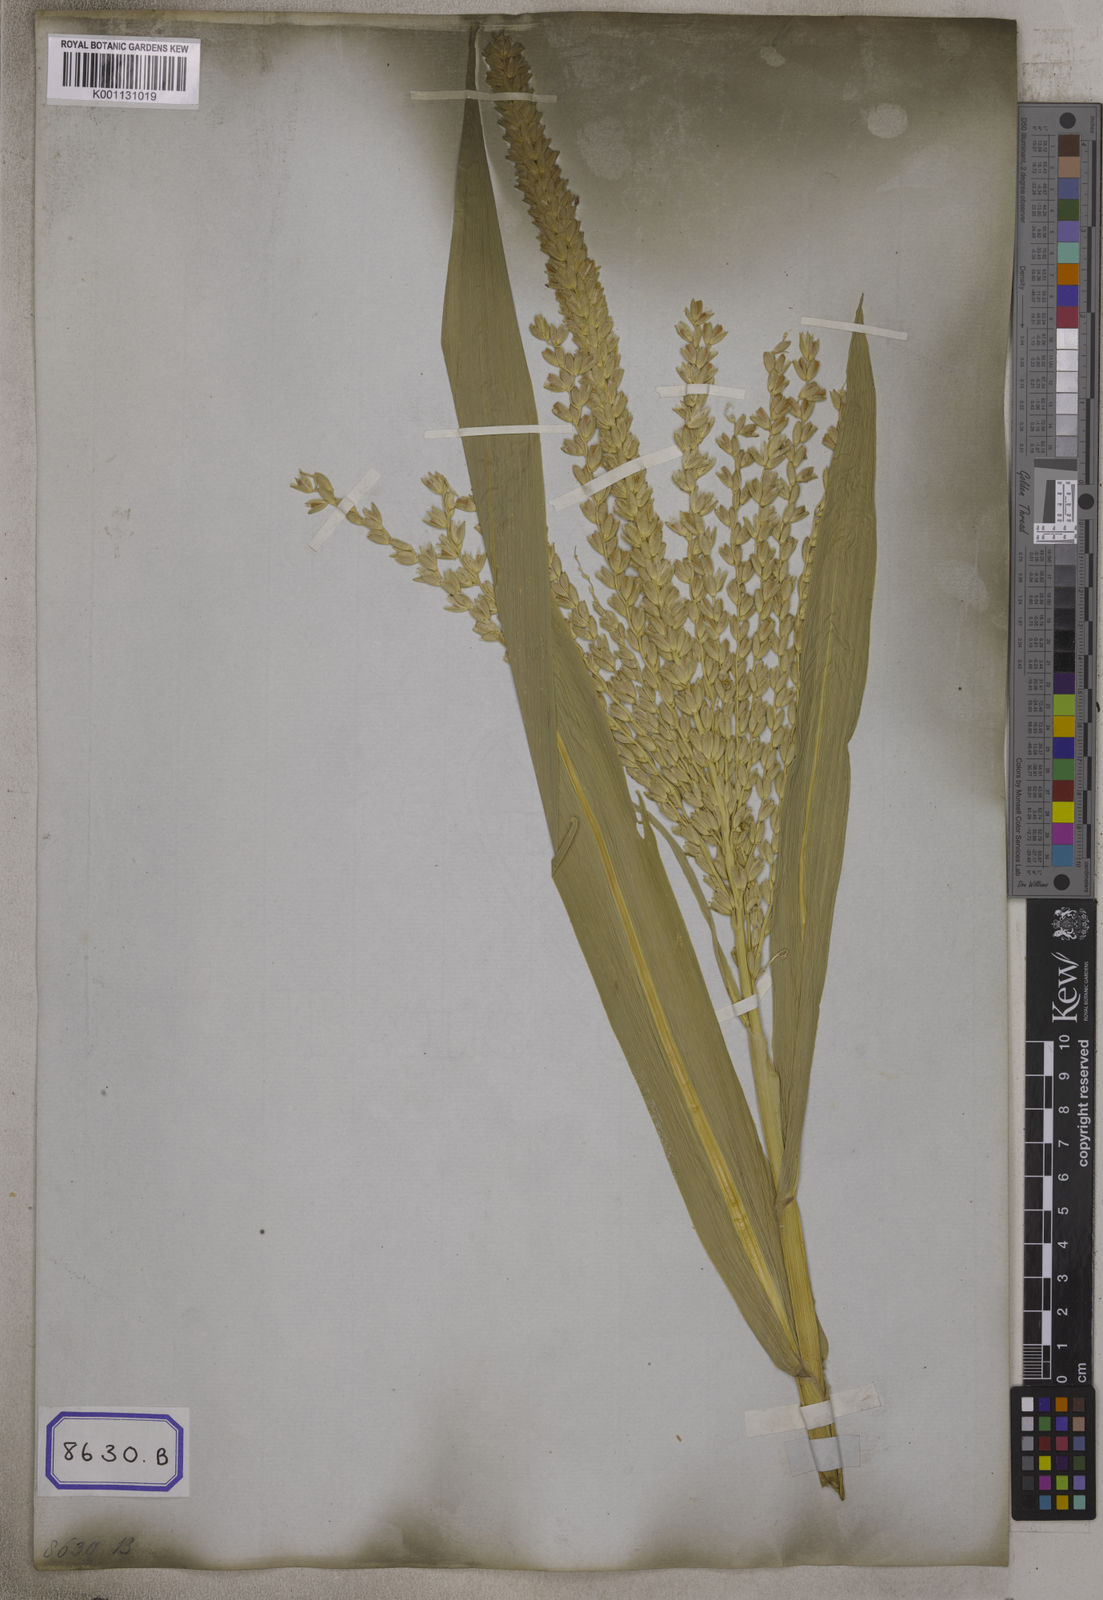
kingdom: Plantae
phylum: Tracheophyta
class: Liliopsida
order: Poales
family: Poaceae
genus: Zea
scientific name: Zea mays
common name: Maize
